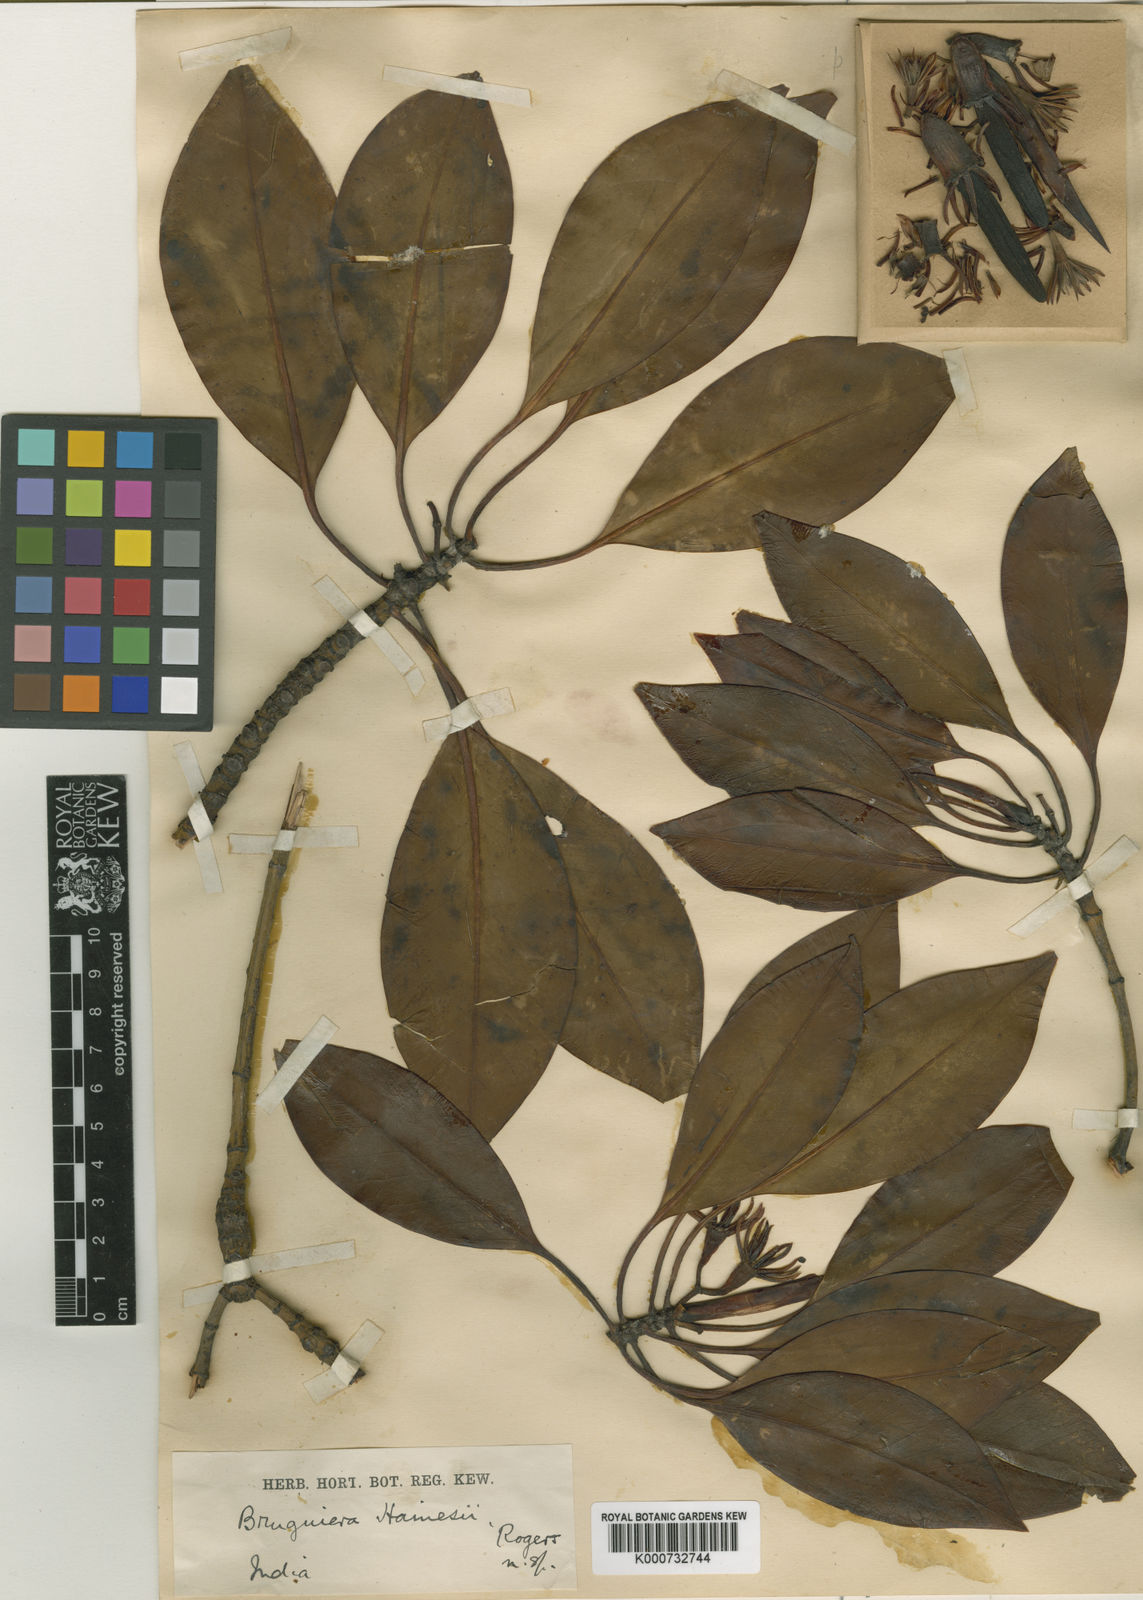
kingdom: Plantae
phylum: Tracheophyta
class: Magnoliopsida
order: Malpighiales
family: Rhizophoraceae
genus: Bruguiera
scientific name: Bruguiera hainesii
